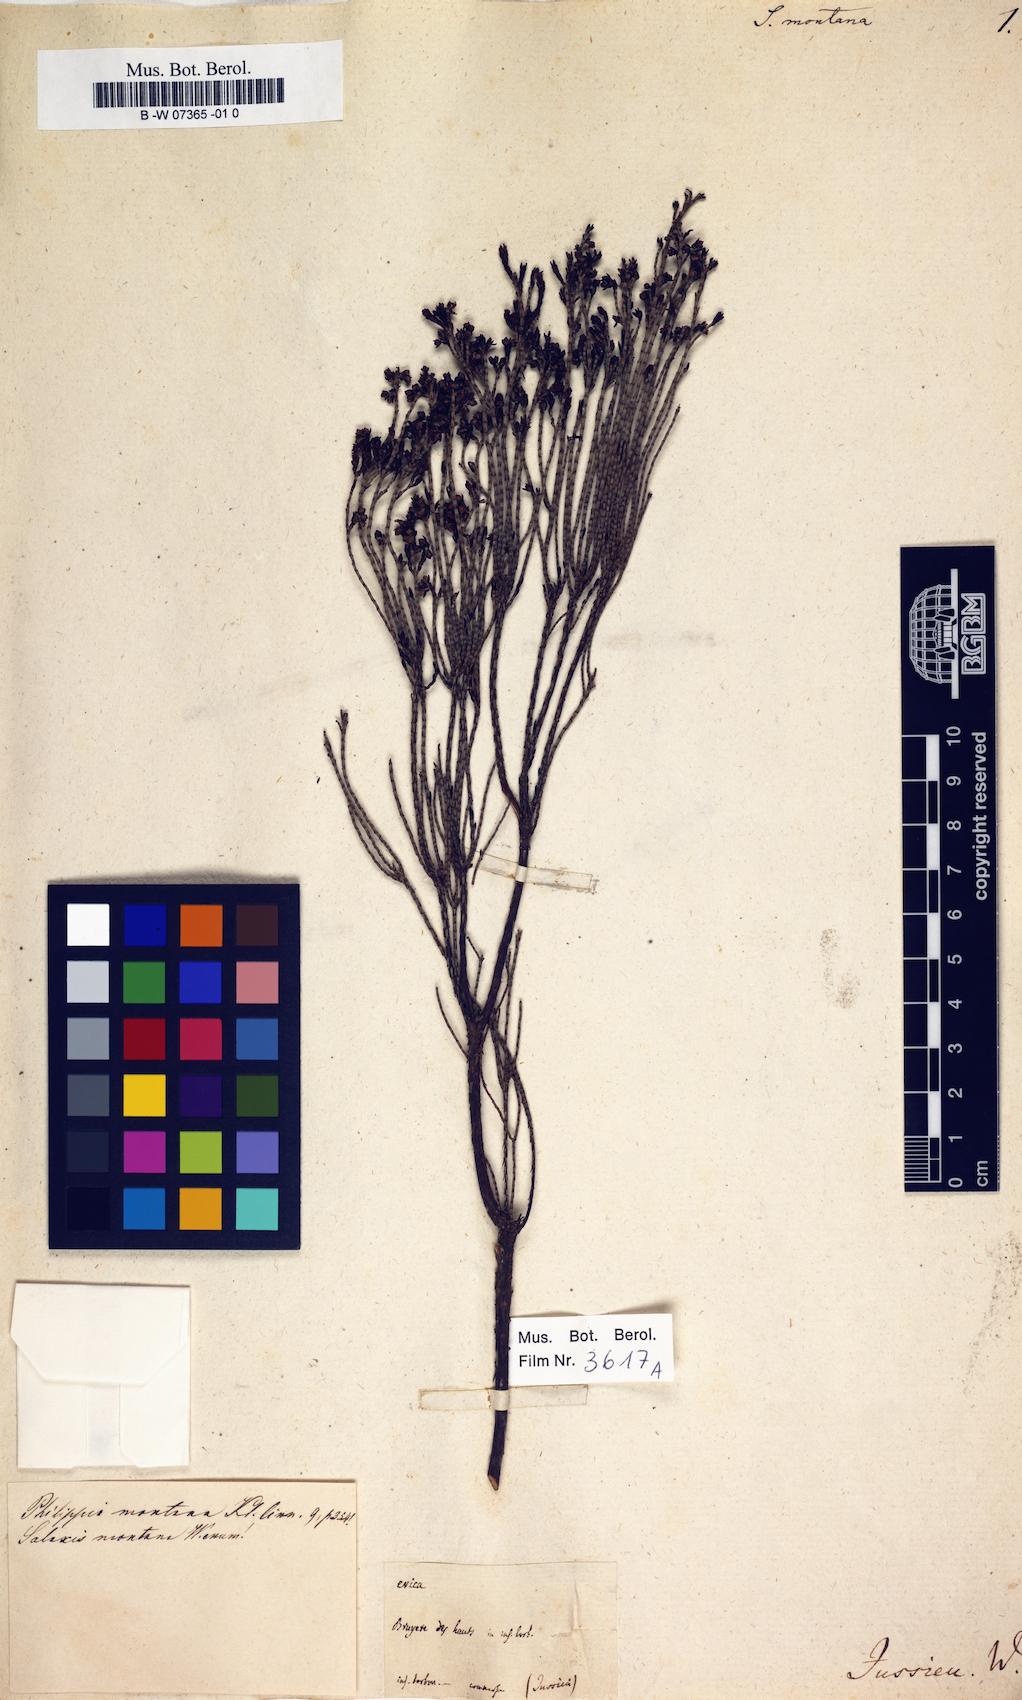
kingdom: Plantae
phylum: Tracheophyta
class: Magnoliopsida
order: Ericales
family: Ericaceae
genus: Erica
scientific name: Erica
